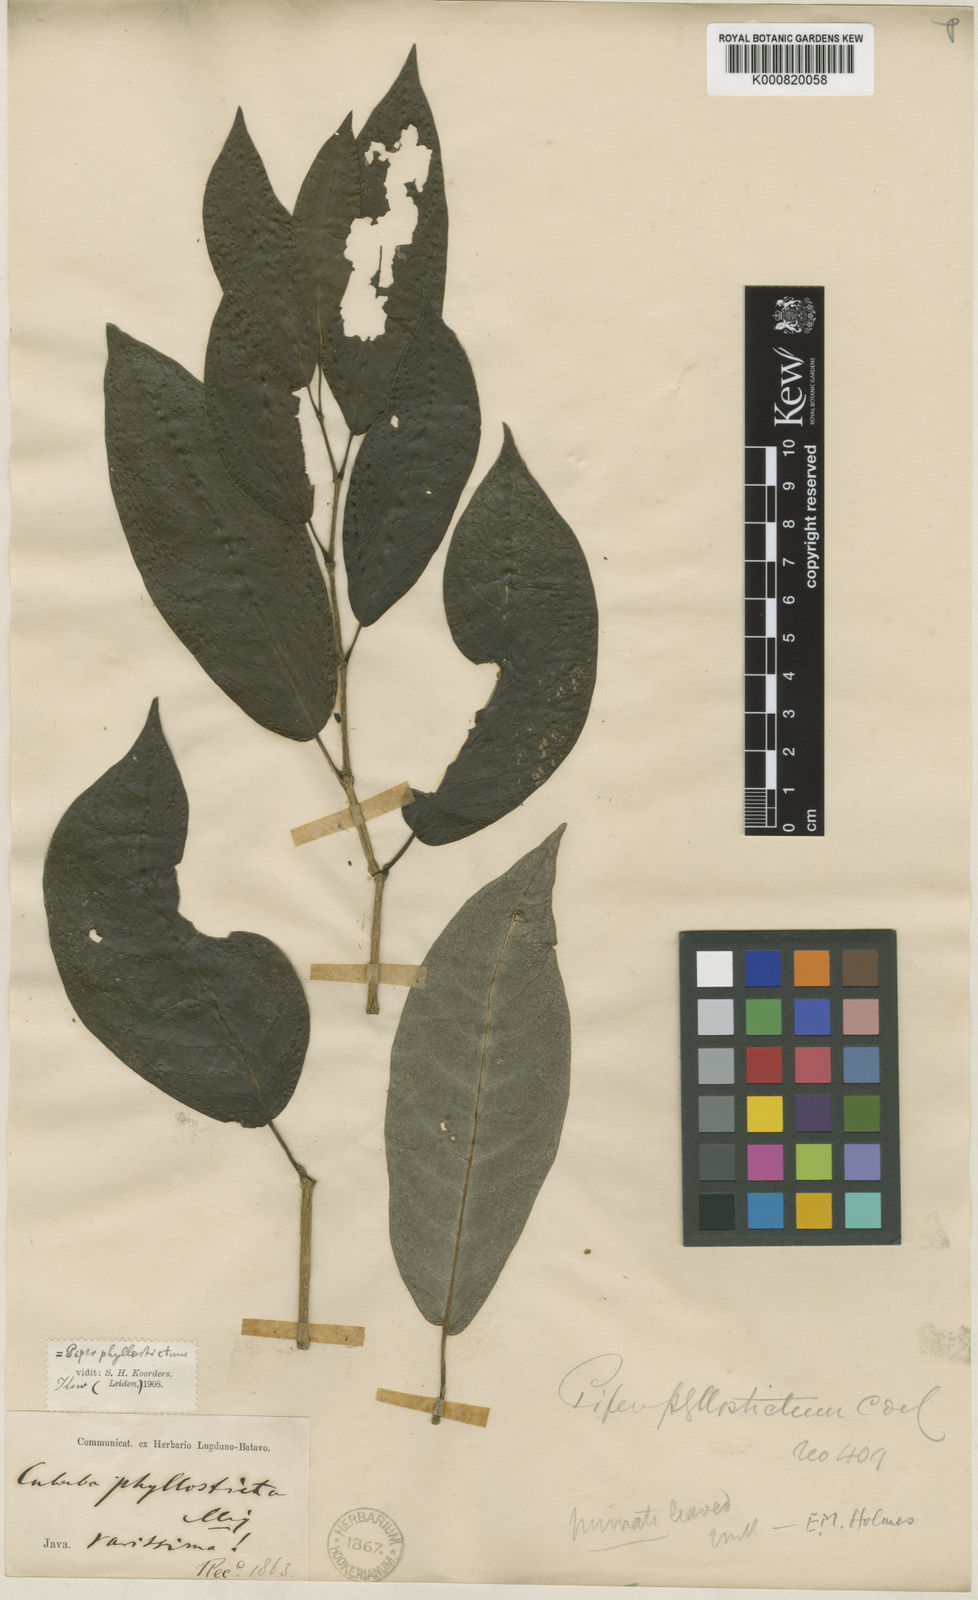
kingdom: Plantae
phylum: Tracheophyta
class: Magnoliopsida
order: Piperales
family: Piperaceae
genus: Piper
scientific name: Piper phyllostictum
